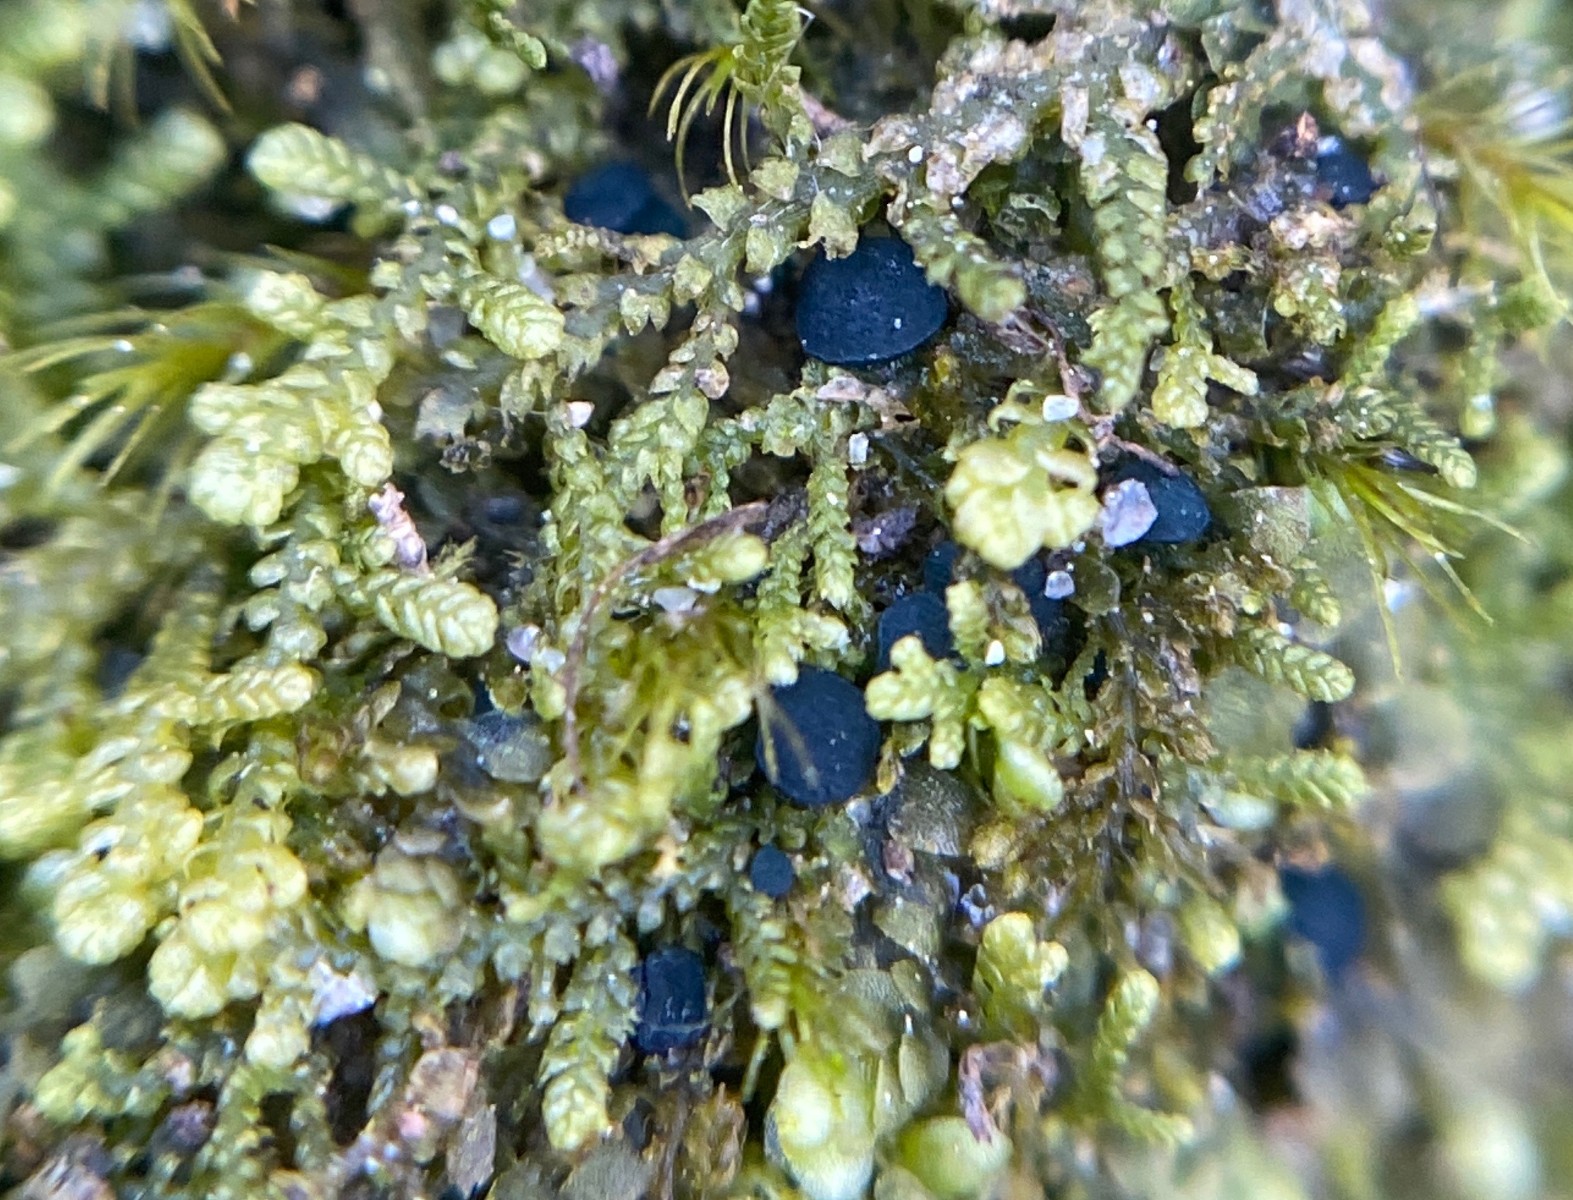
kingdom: Fungi
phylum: Ascomycota
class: Leotiomycetes
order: Leotiales
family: Mniaeciaceae
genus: Mniaecia
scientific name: Mniaecia jungermanniae
